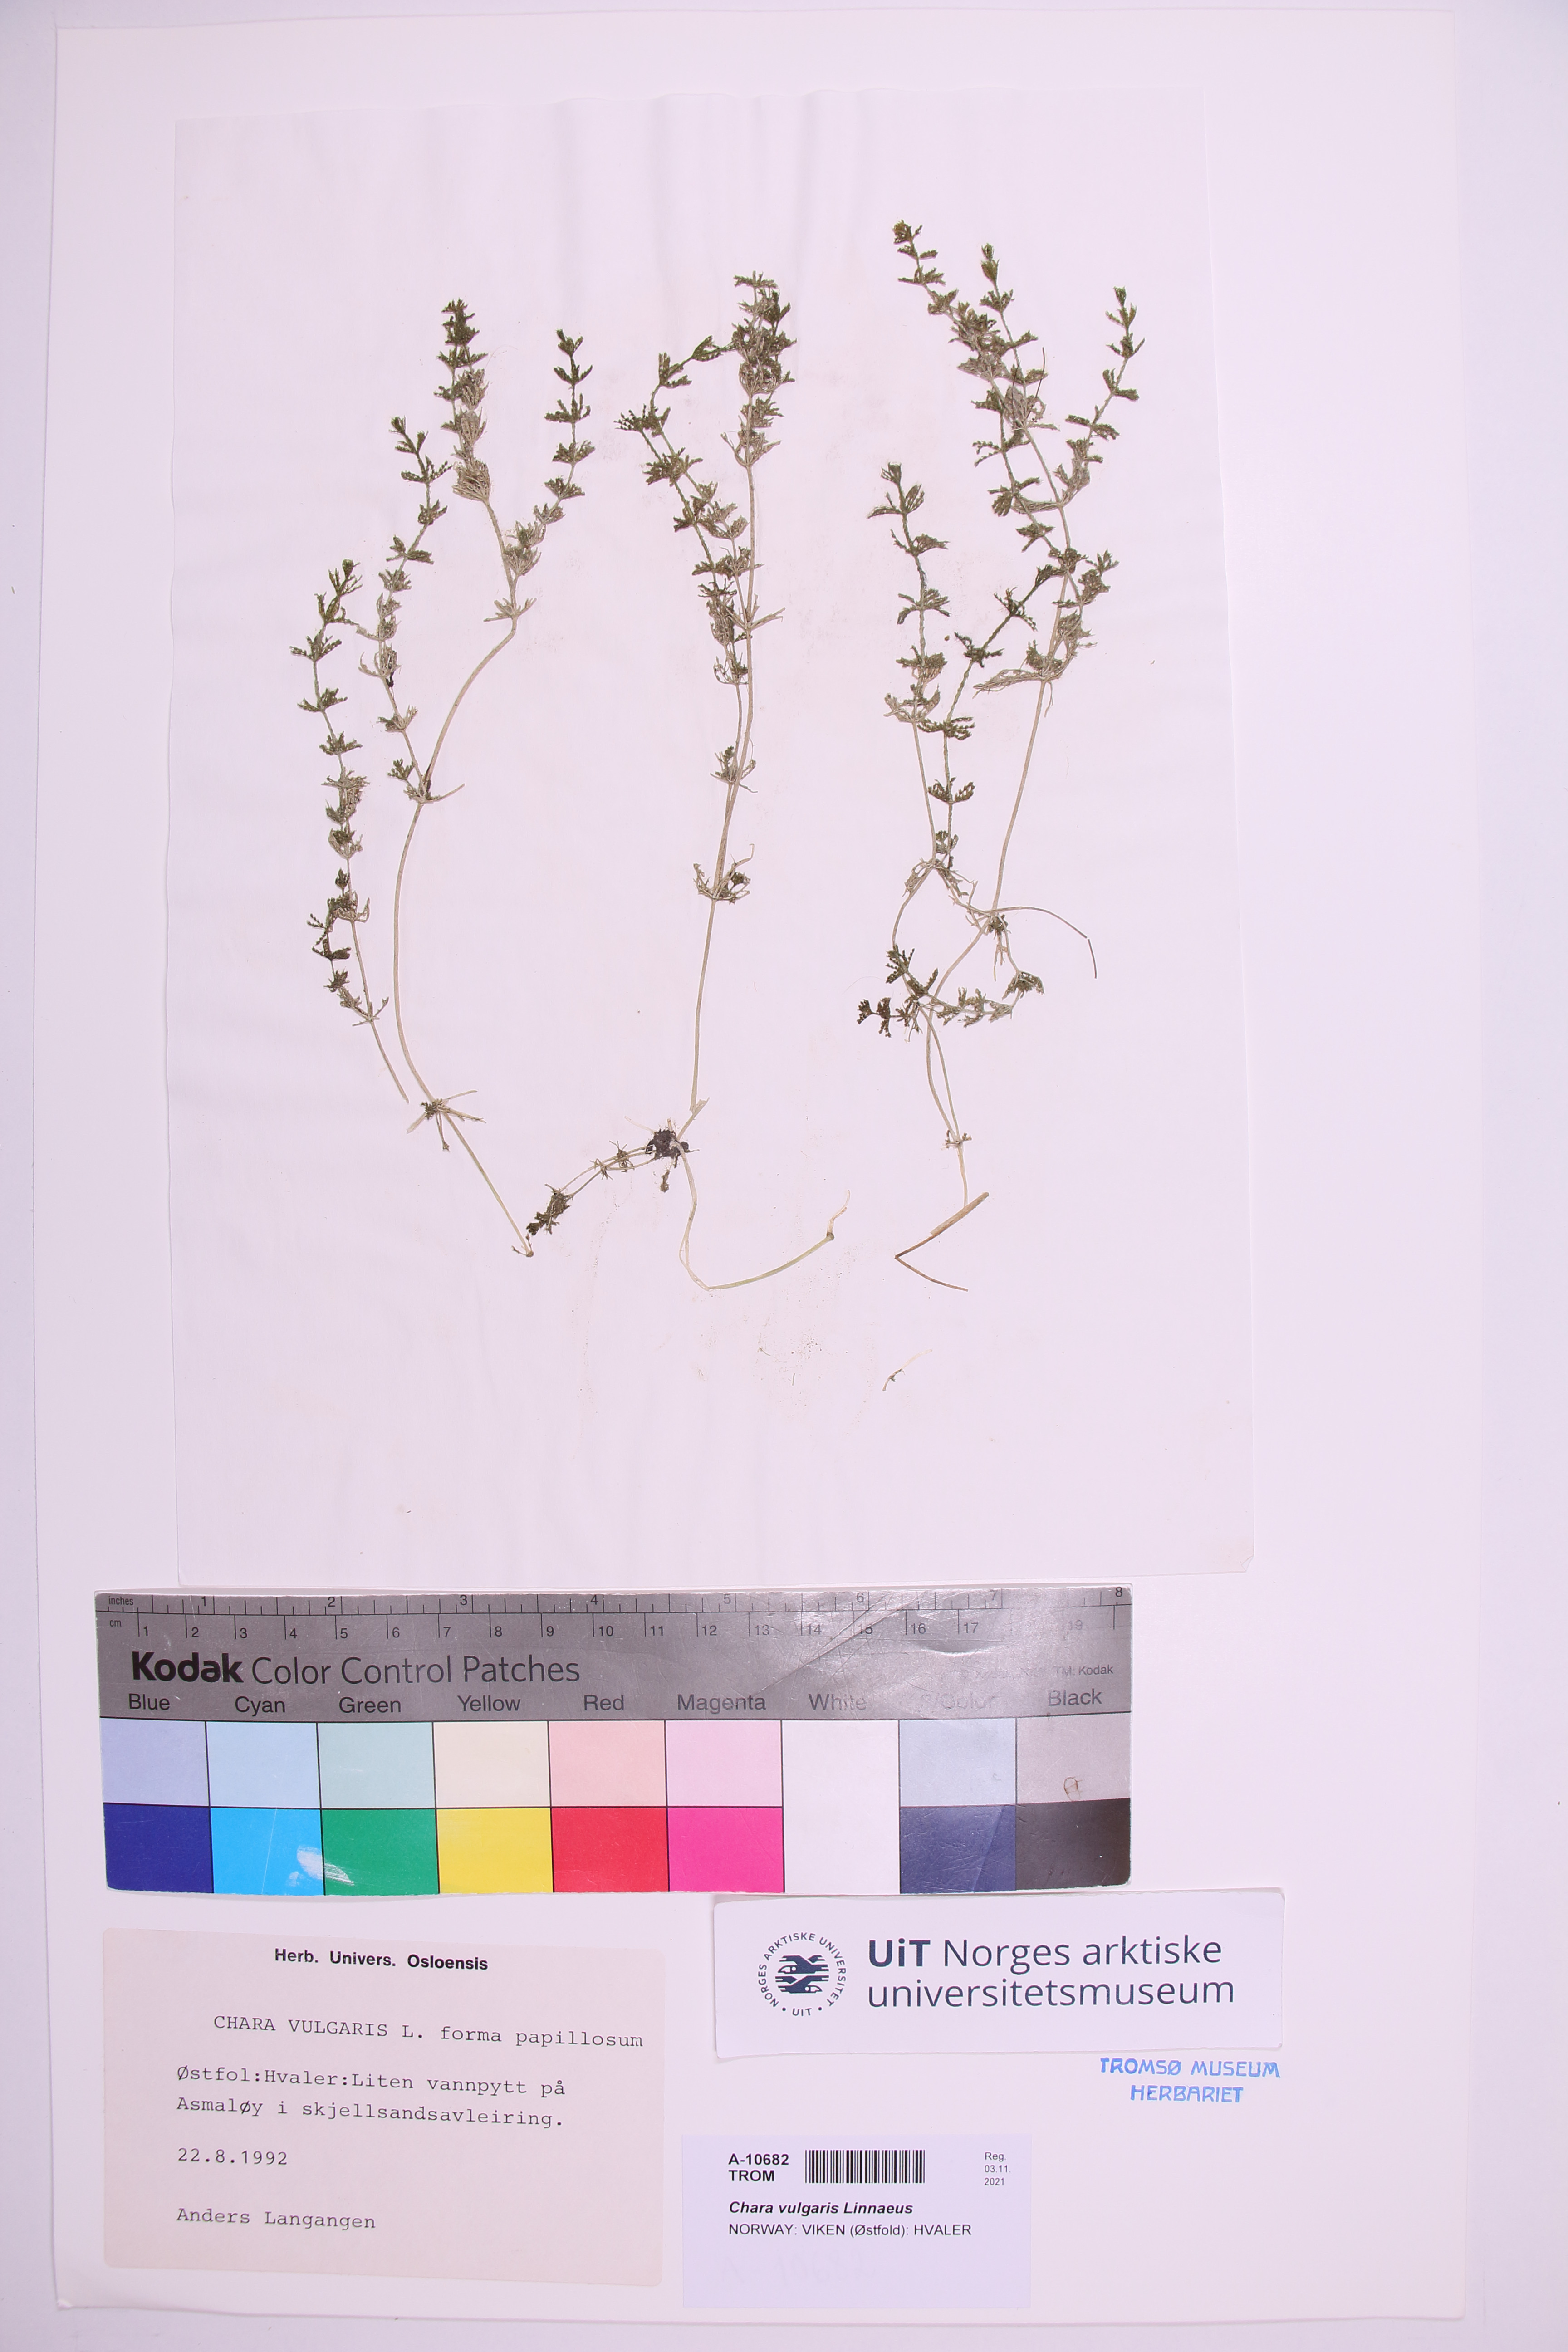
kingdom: Plantae
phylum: Charophyta
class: Charophyceae
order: Charales
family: Characeae
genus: Chara
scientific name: Chara vulgaris
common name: Common stonewort
